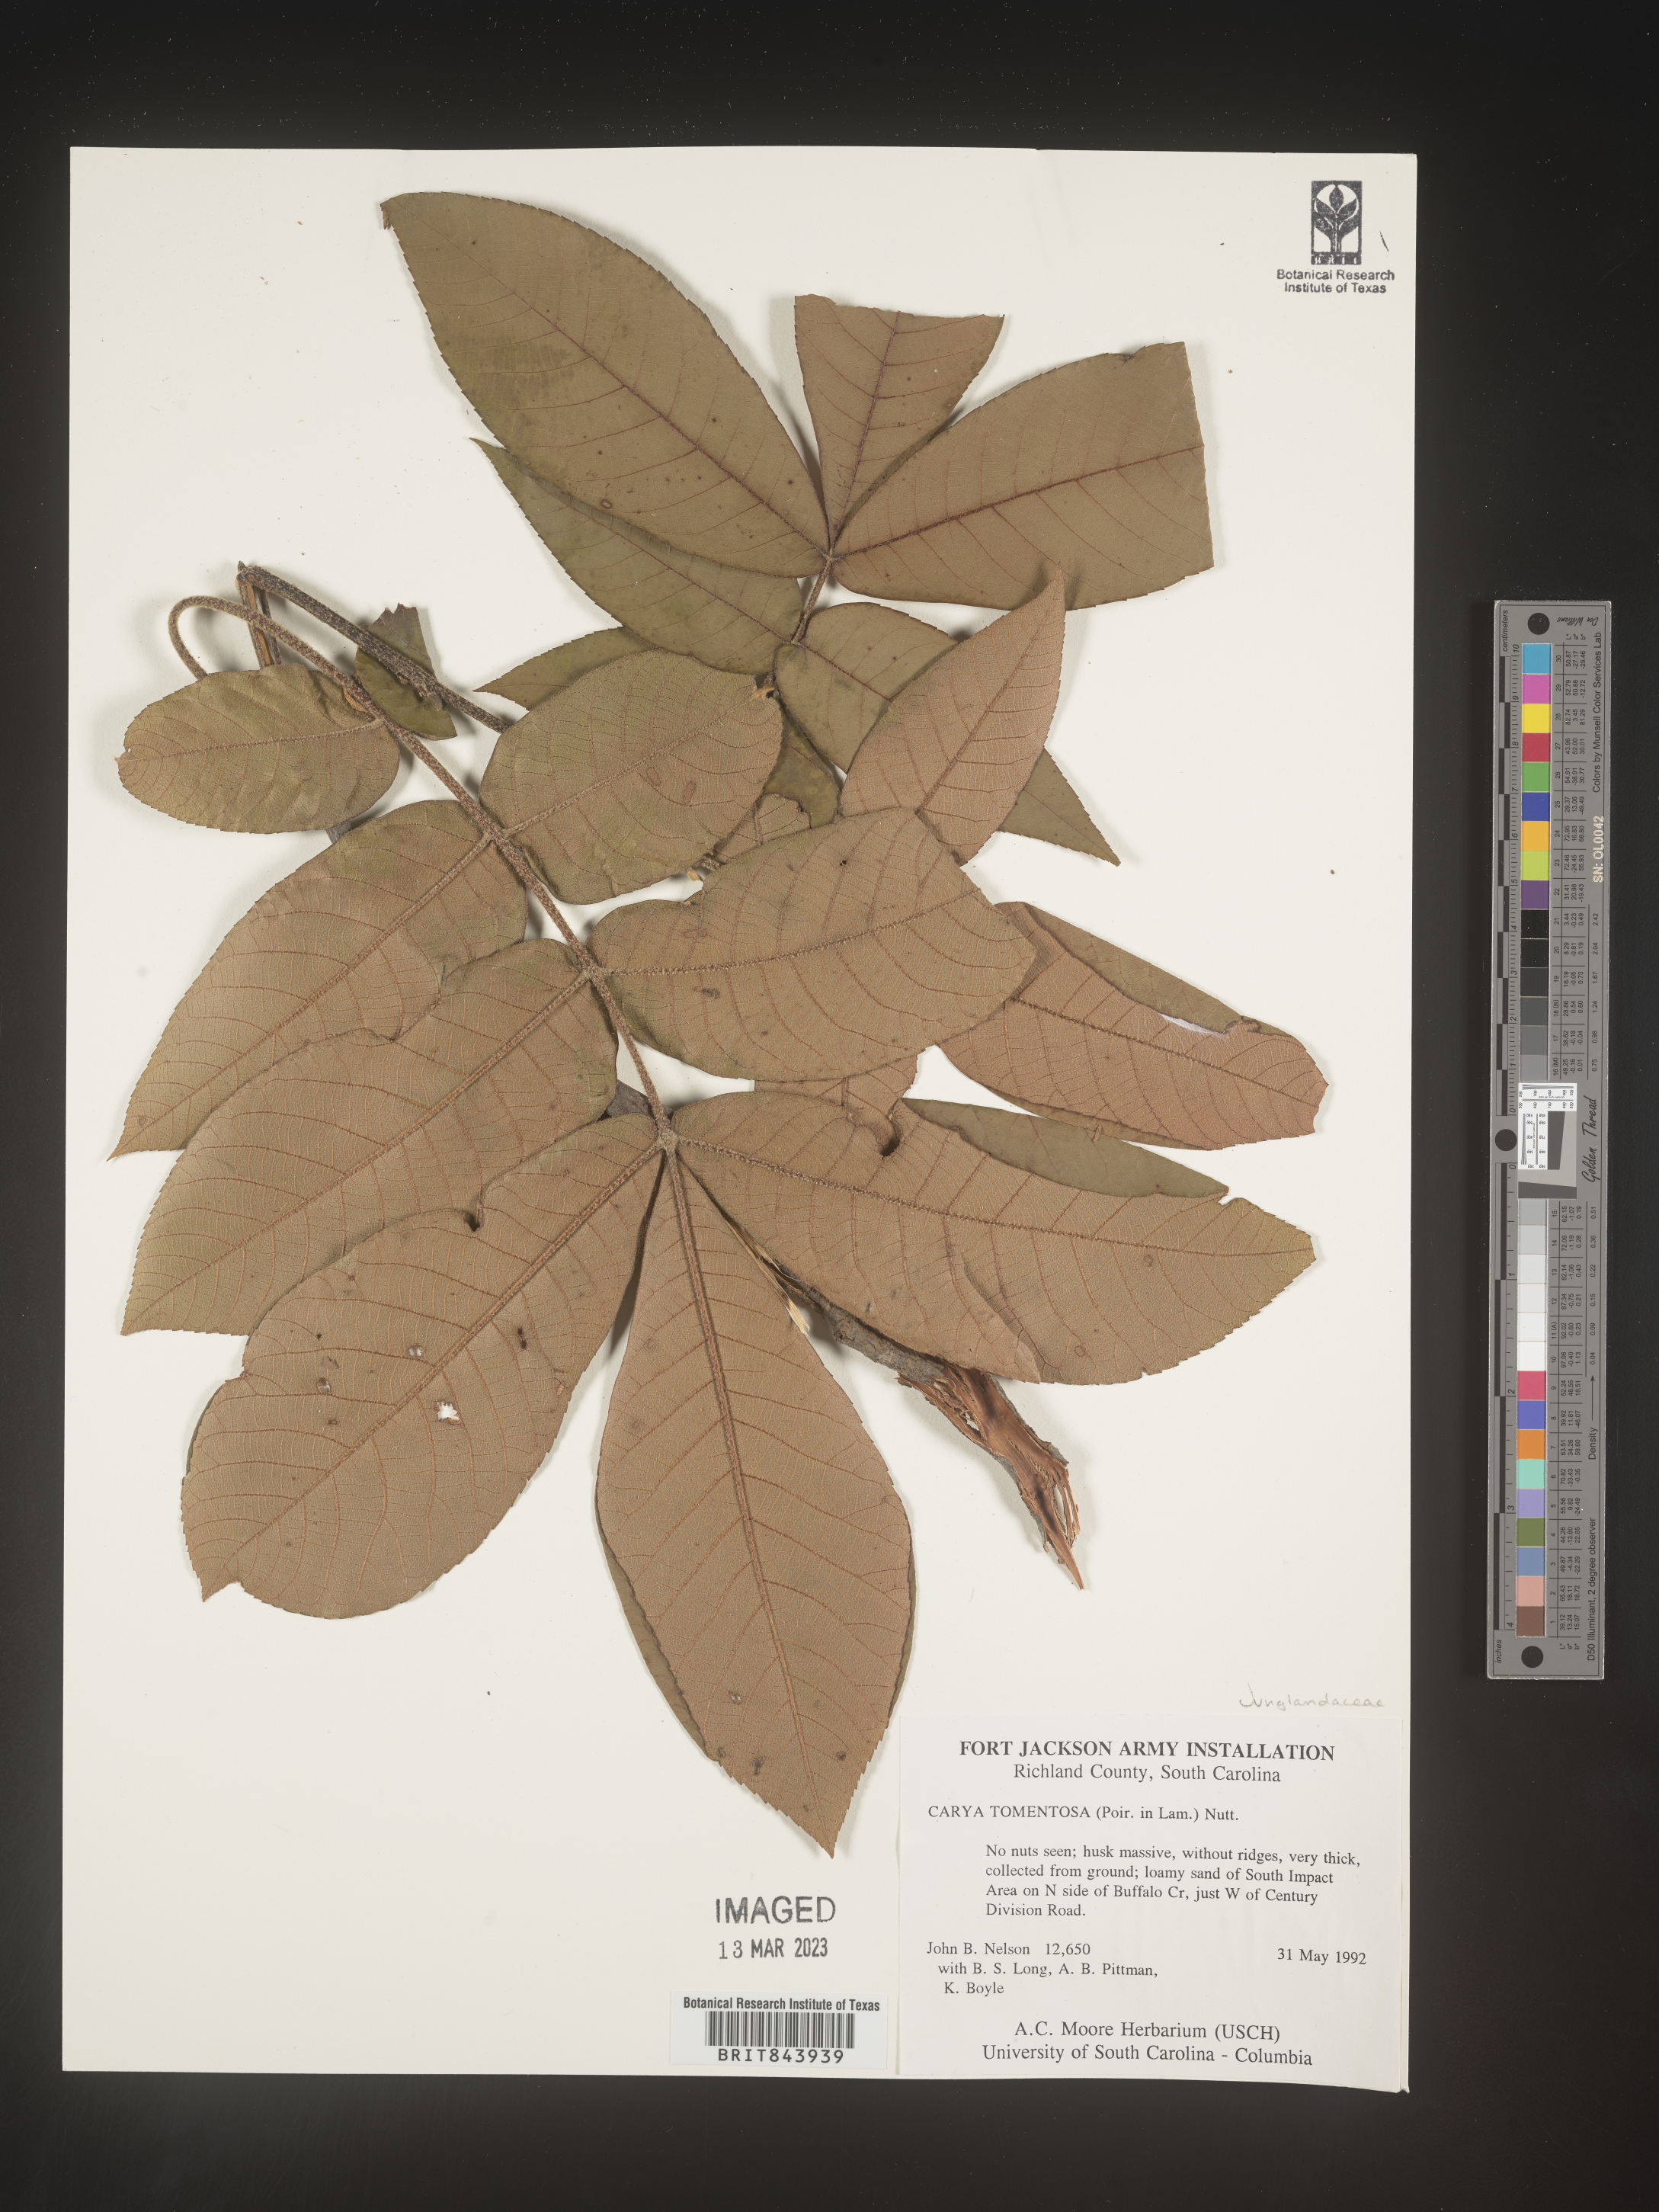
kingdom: Plantae
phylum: Tracheophyta
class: Magnoliopsida
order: Fagales
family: Juglandaceae
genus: Carya
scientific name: Carya alba
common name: Mockernut hickory
